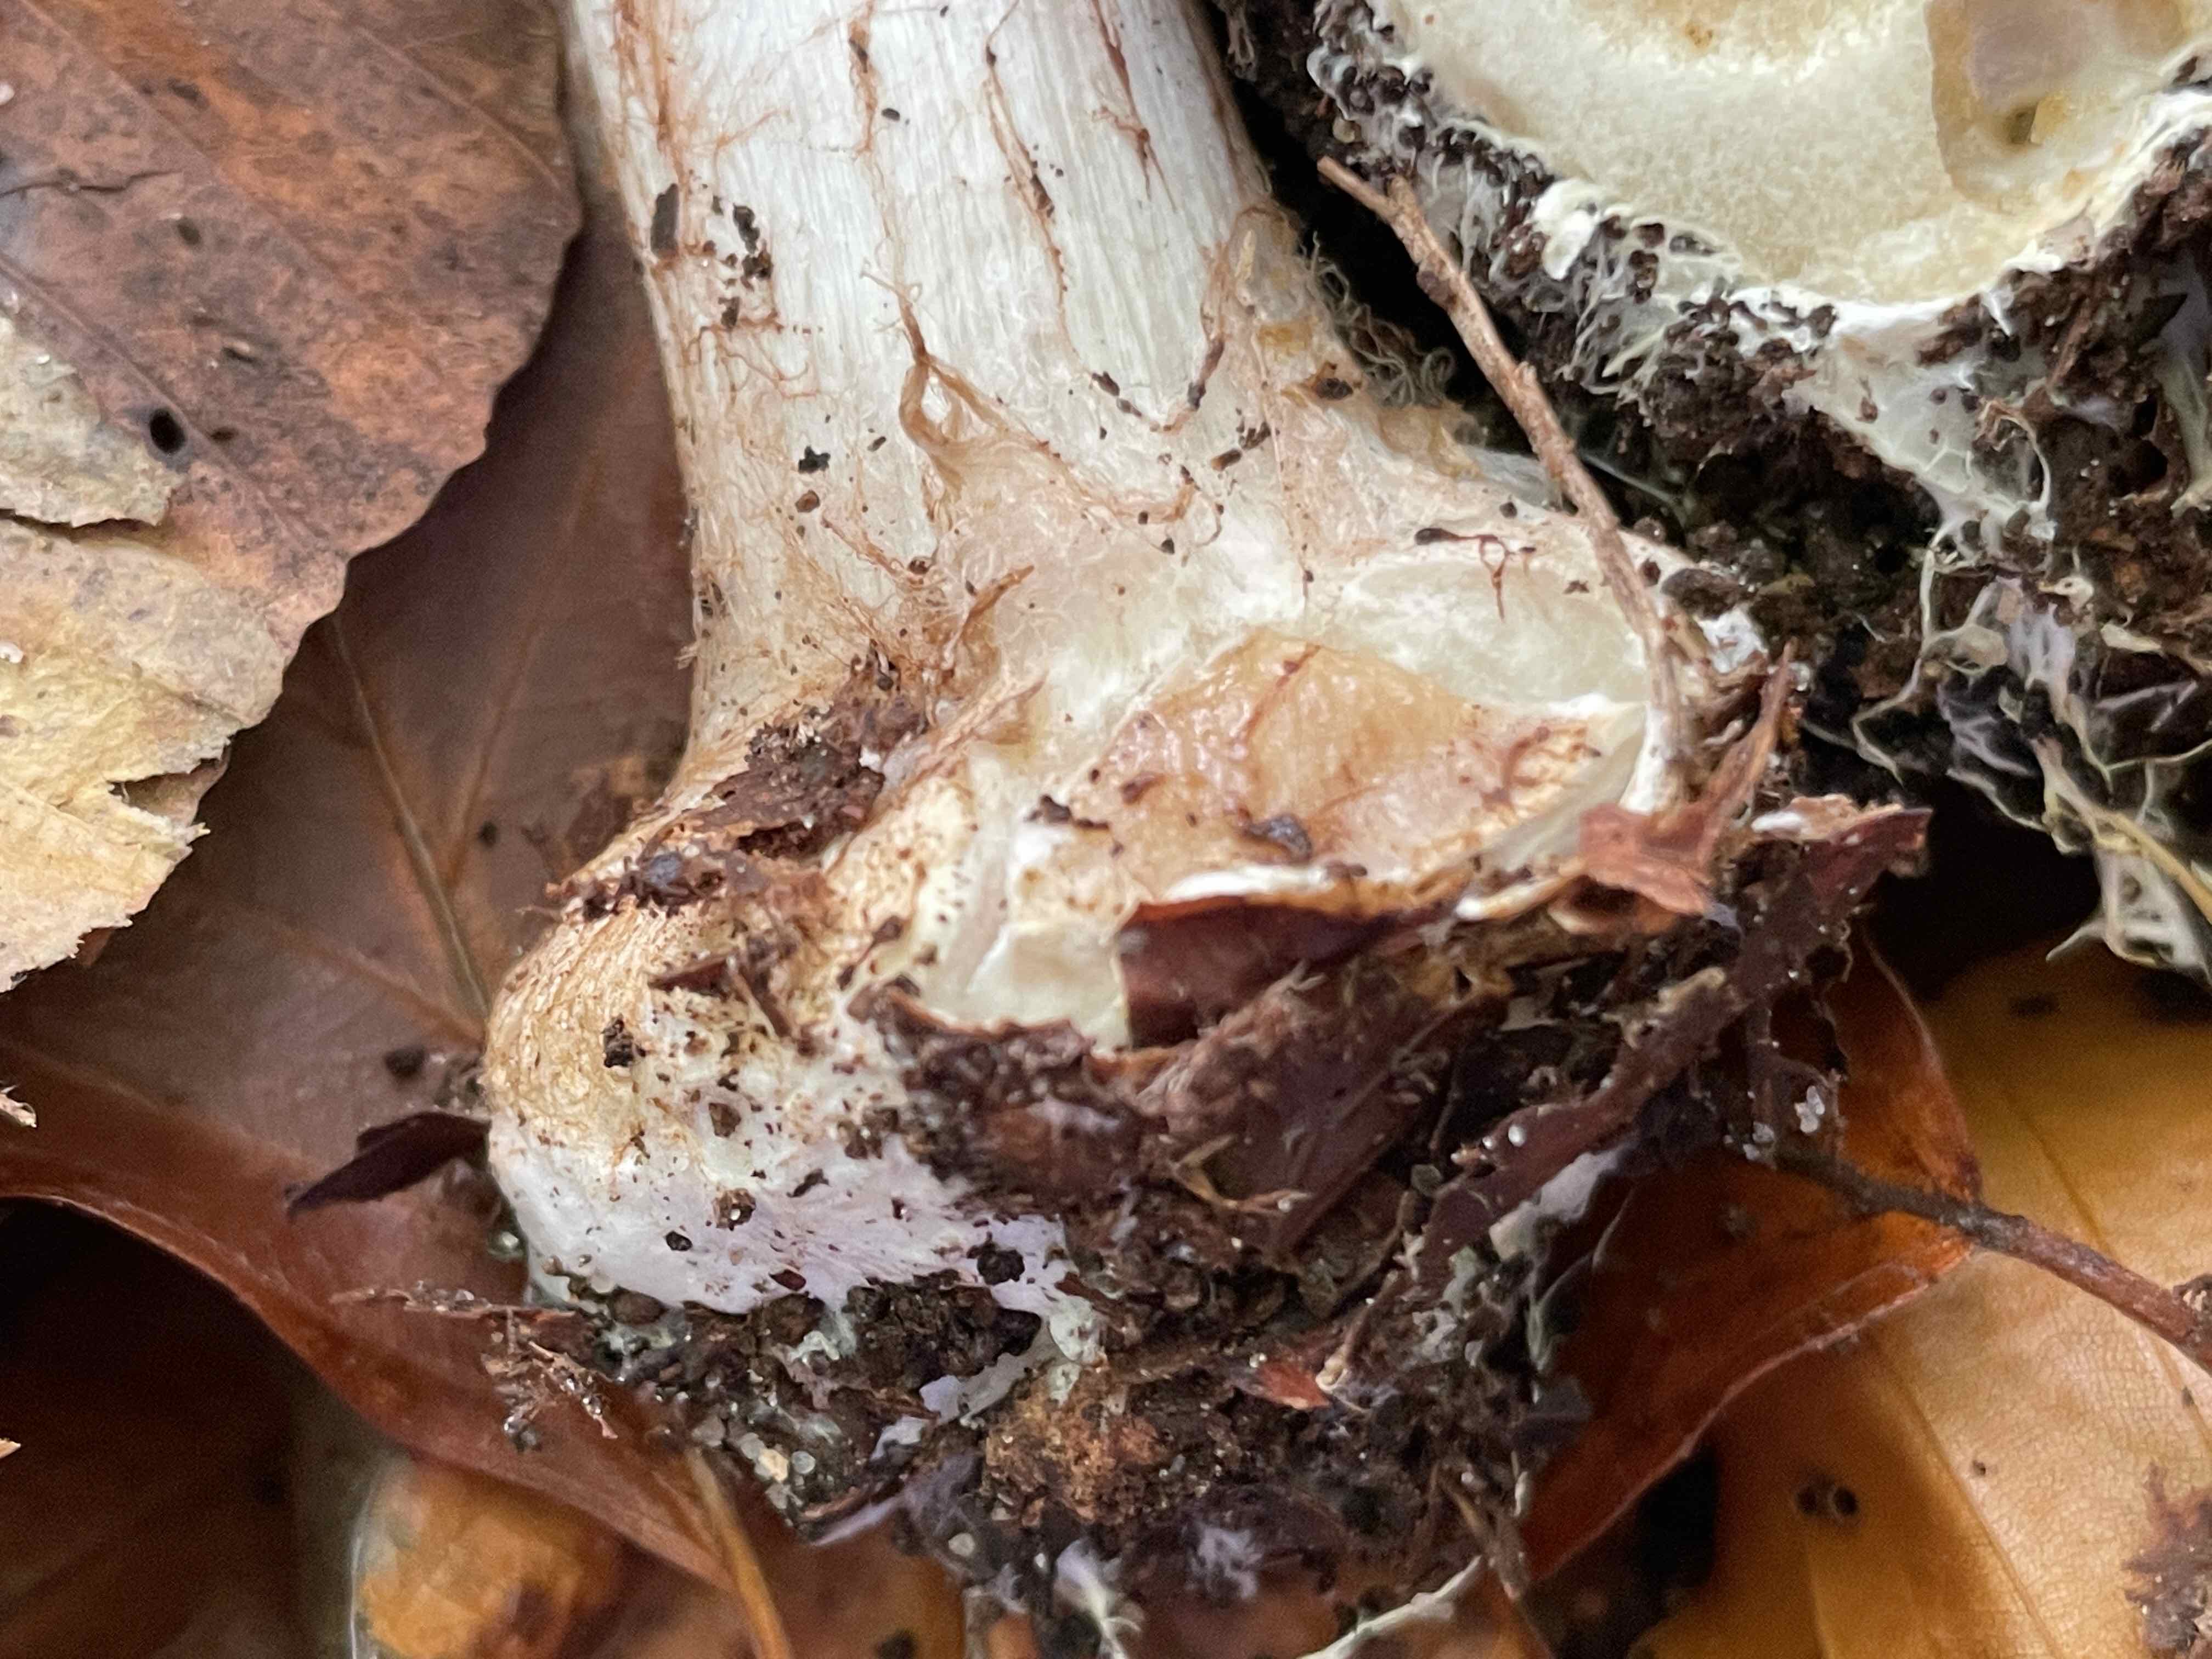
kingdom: Fungi
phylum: Basidiomycota
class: Agaricomycetes
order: Agaricales
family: Cortinariaceae
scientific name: Cortinariaceae
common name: slørhatfamilien
